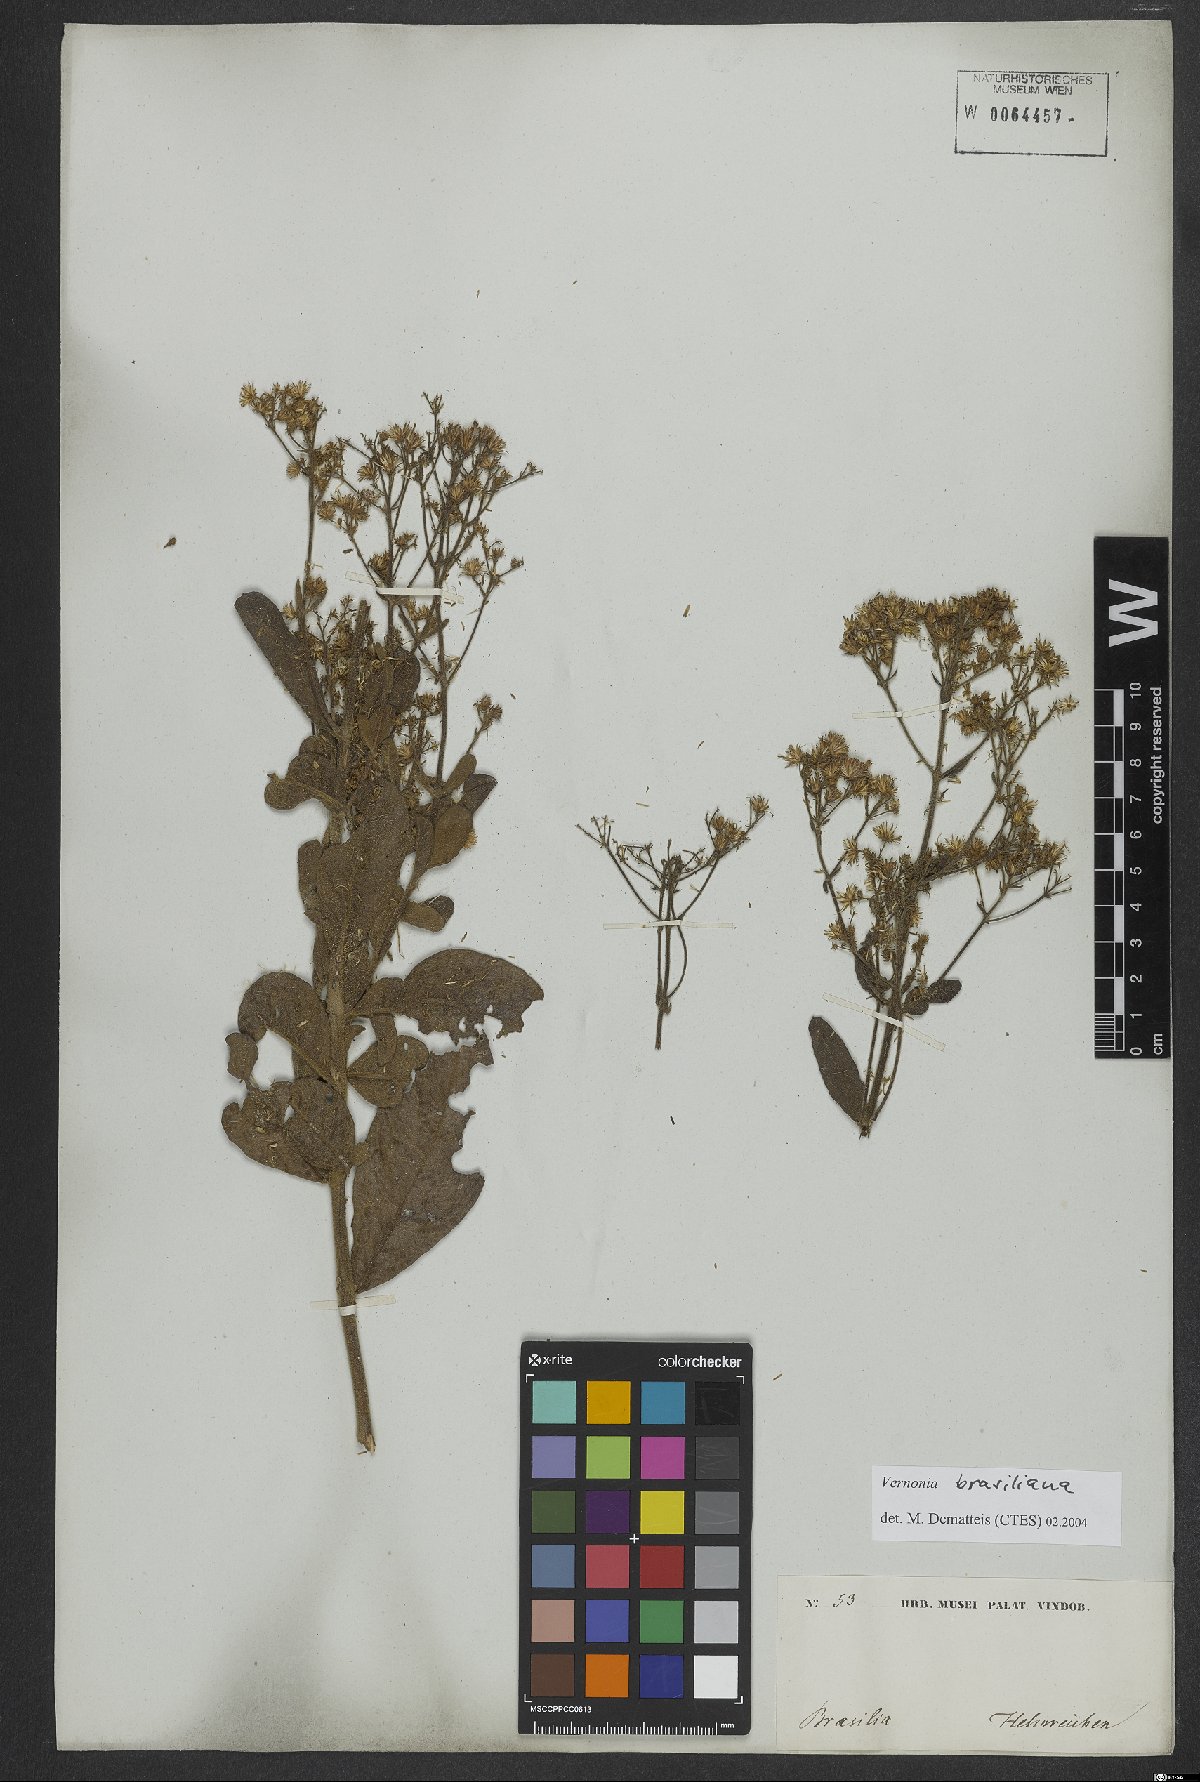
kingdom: Plantae
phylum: Tracheophyta
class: Magnoliopsida
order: Asterales
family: Asteraceae
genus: Vernonanthura
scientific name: Vernonanthura brasiliana
